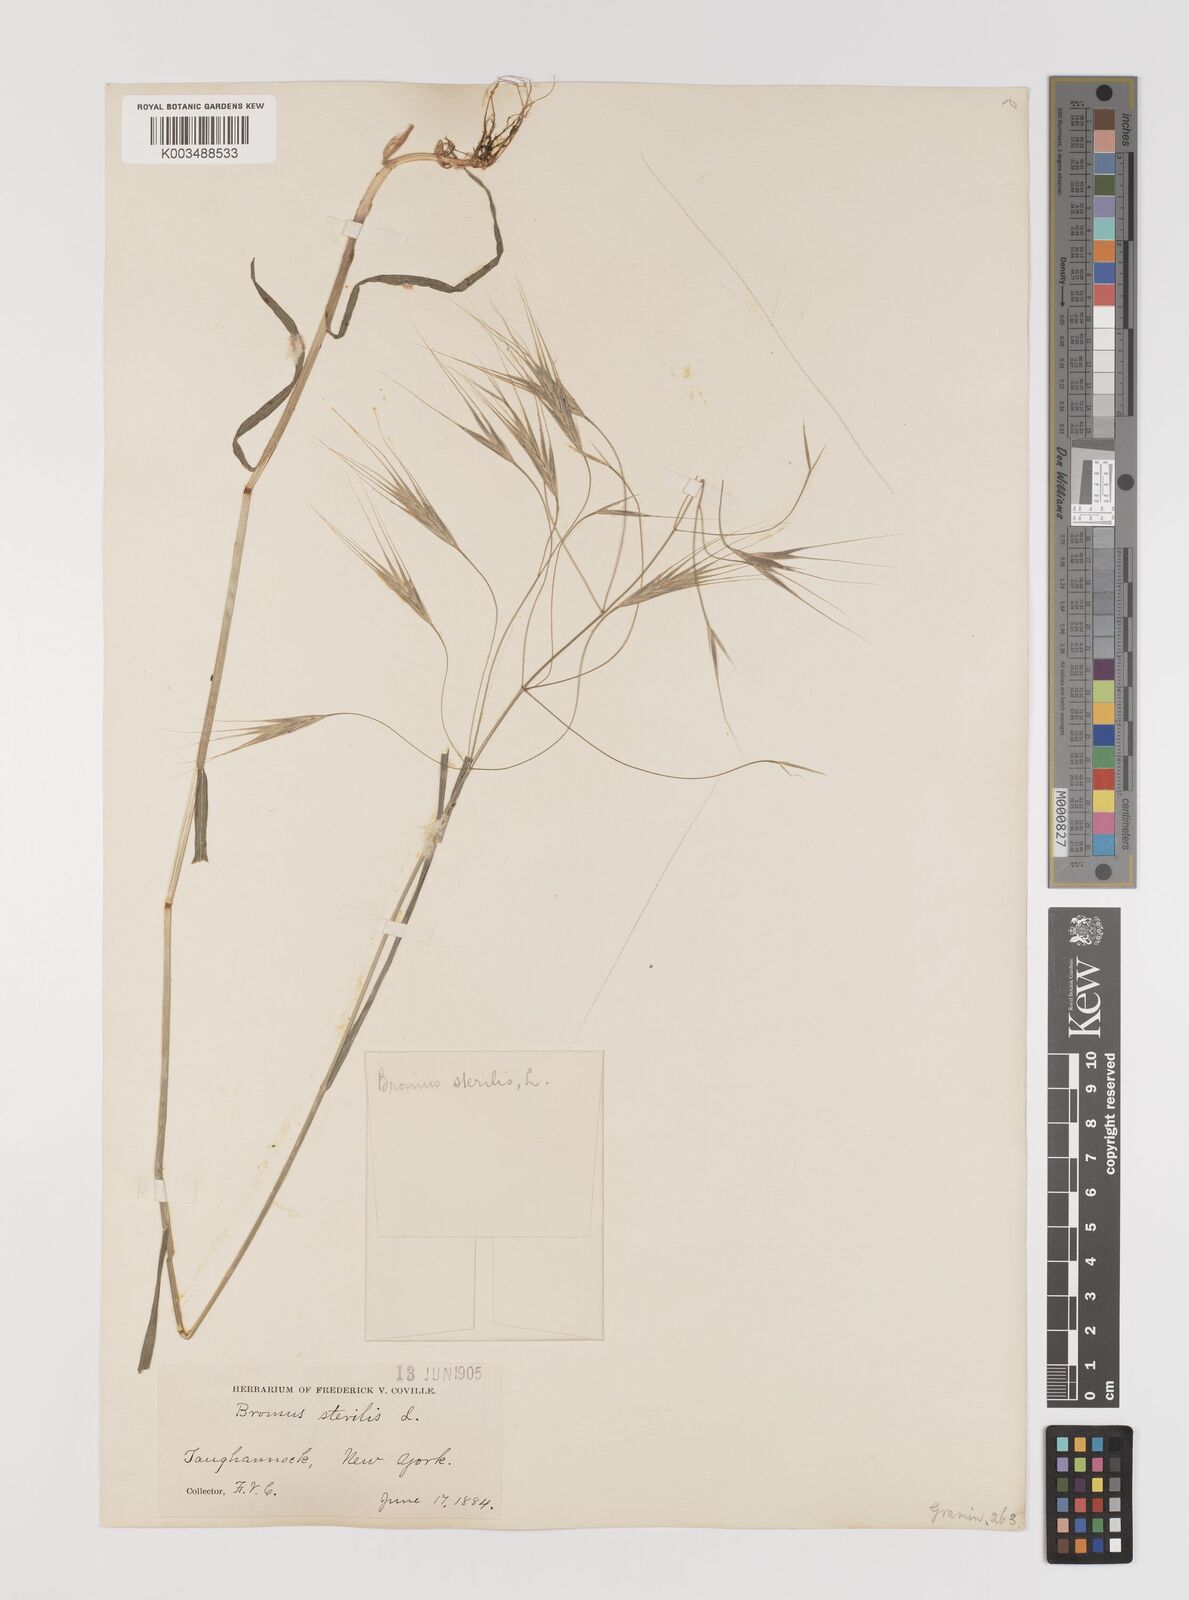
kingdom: Plantae
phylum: Tracheophyta
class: Liliopsida
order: Poales
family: Poaceae
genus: Bromus
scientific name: Bromus sterilis
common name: Poverty brome
